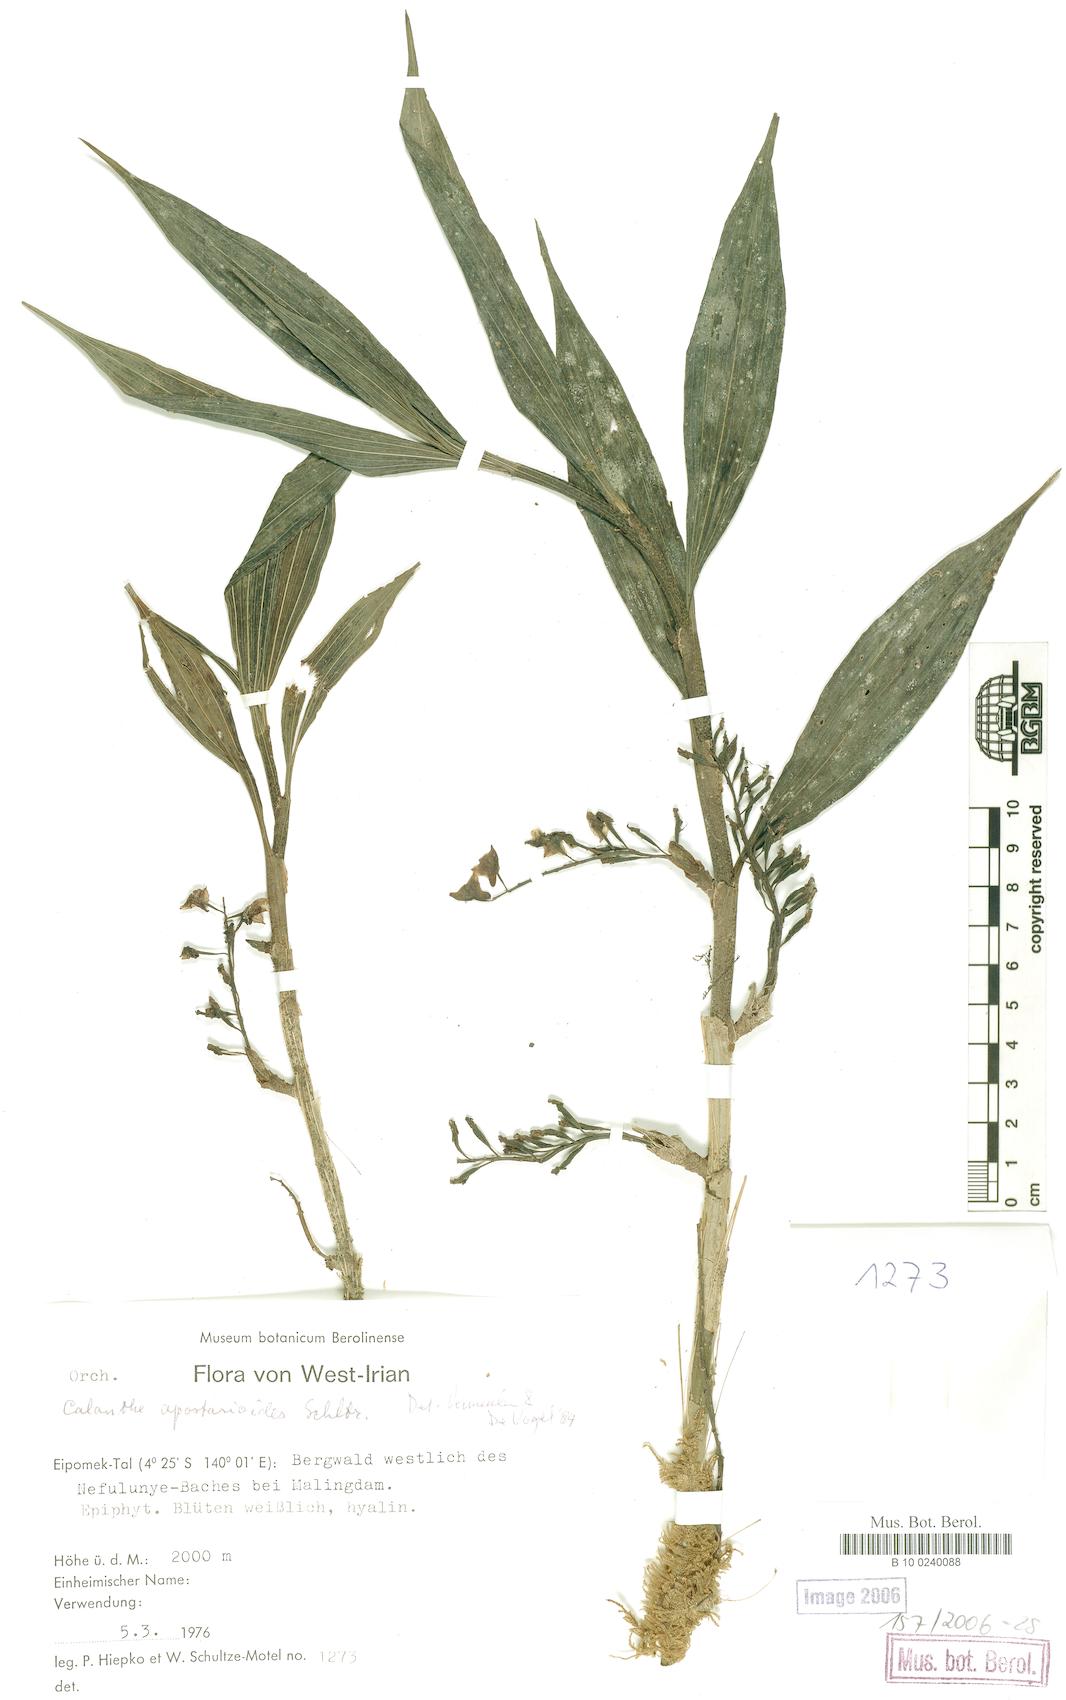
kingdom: Plantae
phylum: Tracheophyta
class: Liliopsida
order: Asparagales
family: Orchidaceae
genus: Spathoglottis
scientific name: Spathoglottis plicata
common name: Philippine ground orchid
